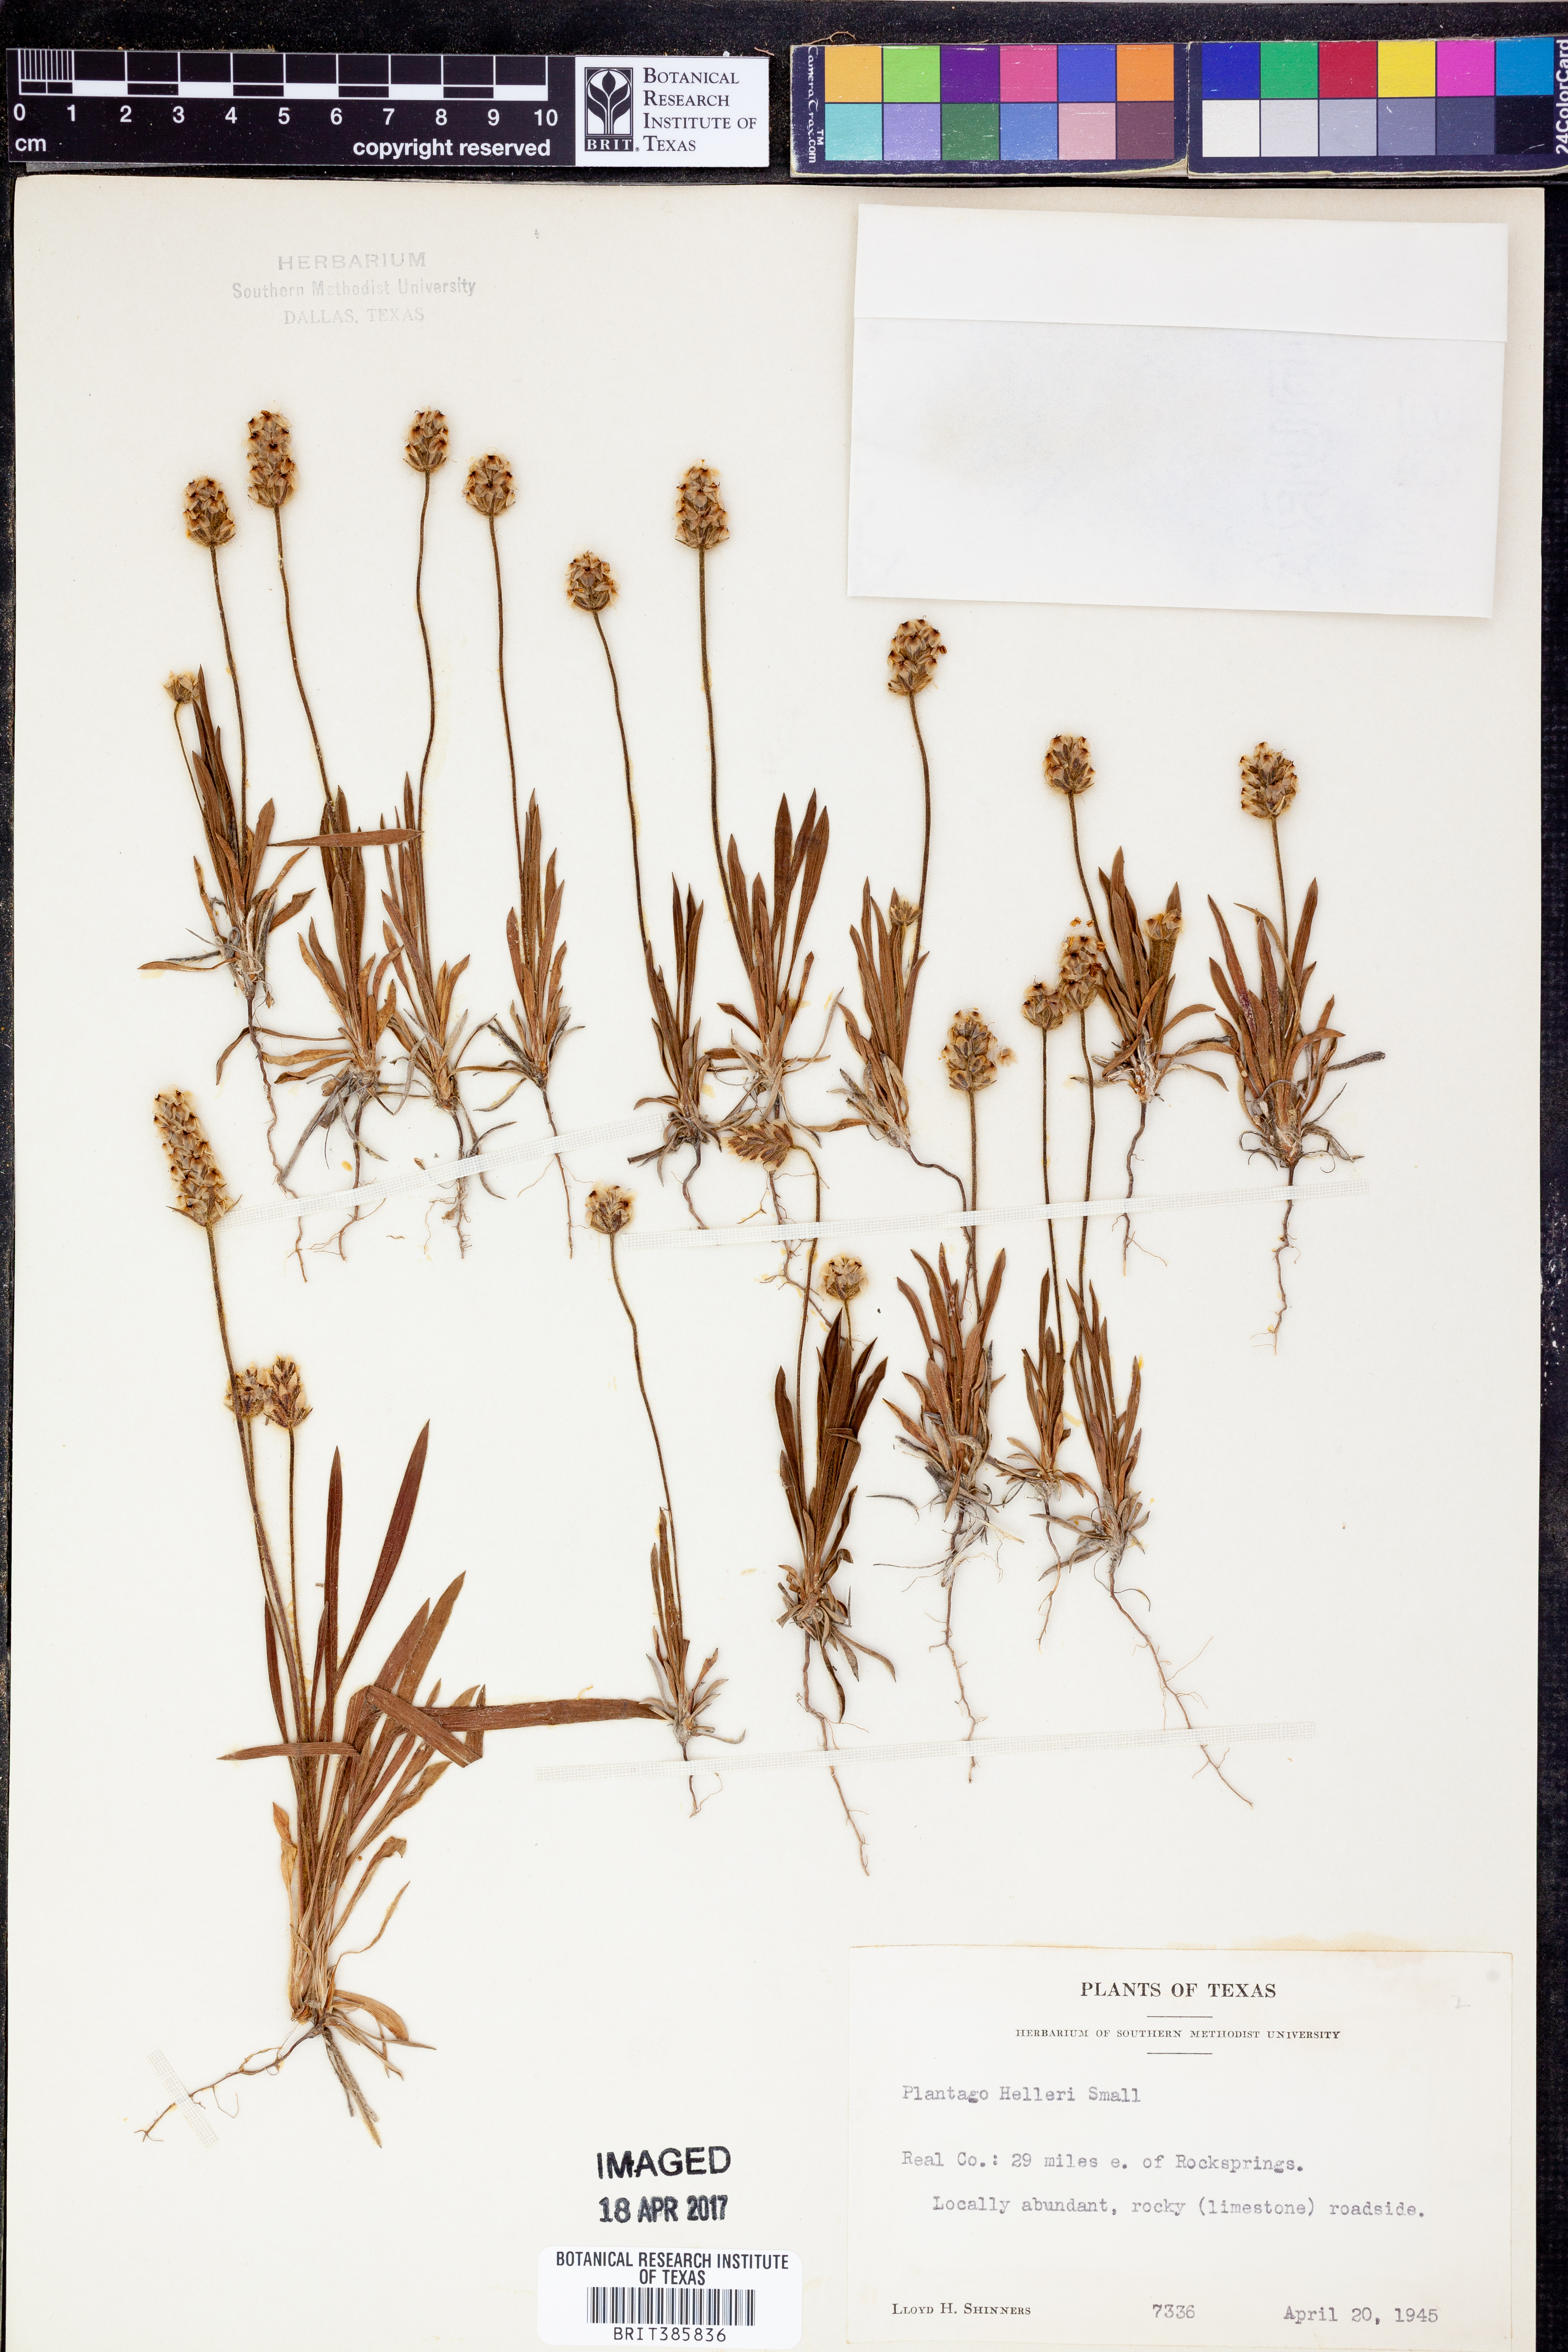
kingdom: Plantae
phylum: Tracheophyta
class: Magnoliopsida
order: Lamiales
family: Plantaginaceae
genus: Plantago
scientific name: Plantago helleri
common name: Heller's plantain
